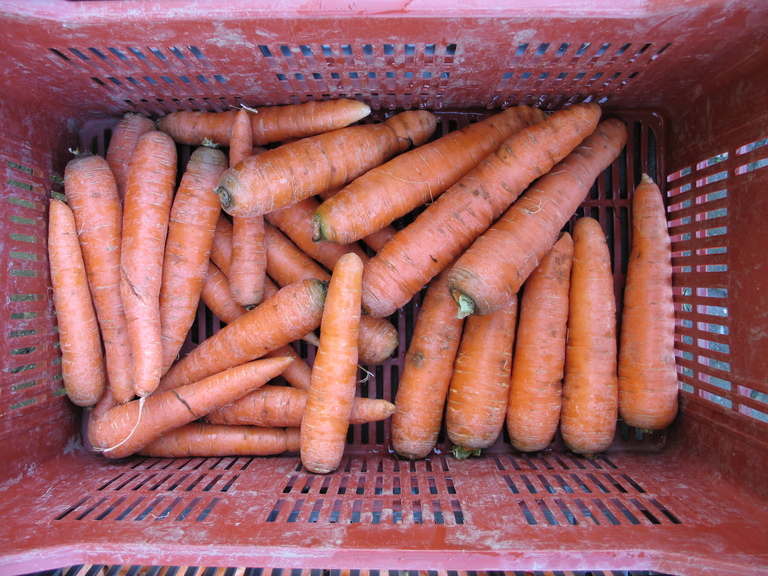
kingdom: Plantae
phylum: Tracheophyta
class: Magnoliopsida
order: Apiales
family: Apiaceae
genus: Daucus
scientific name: Daucus carota
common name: Wild carrot
